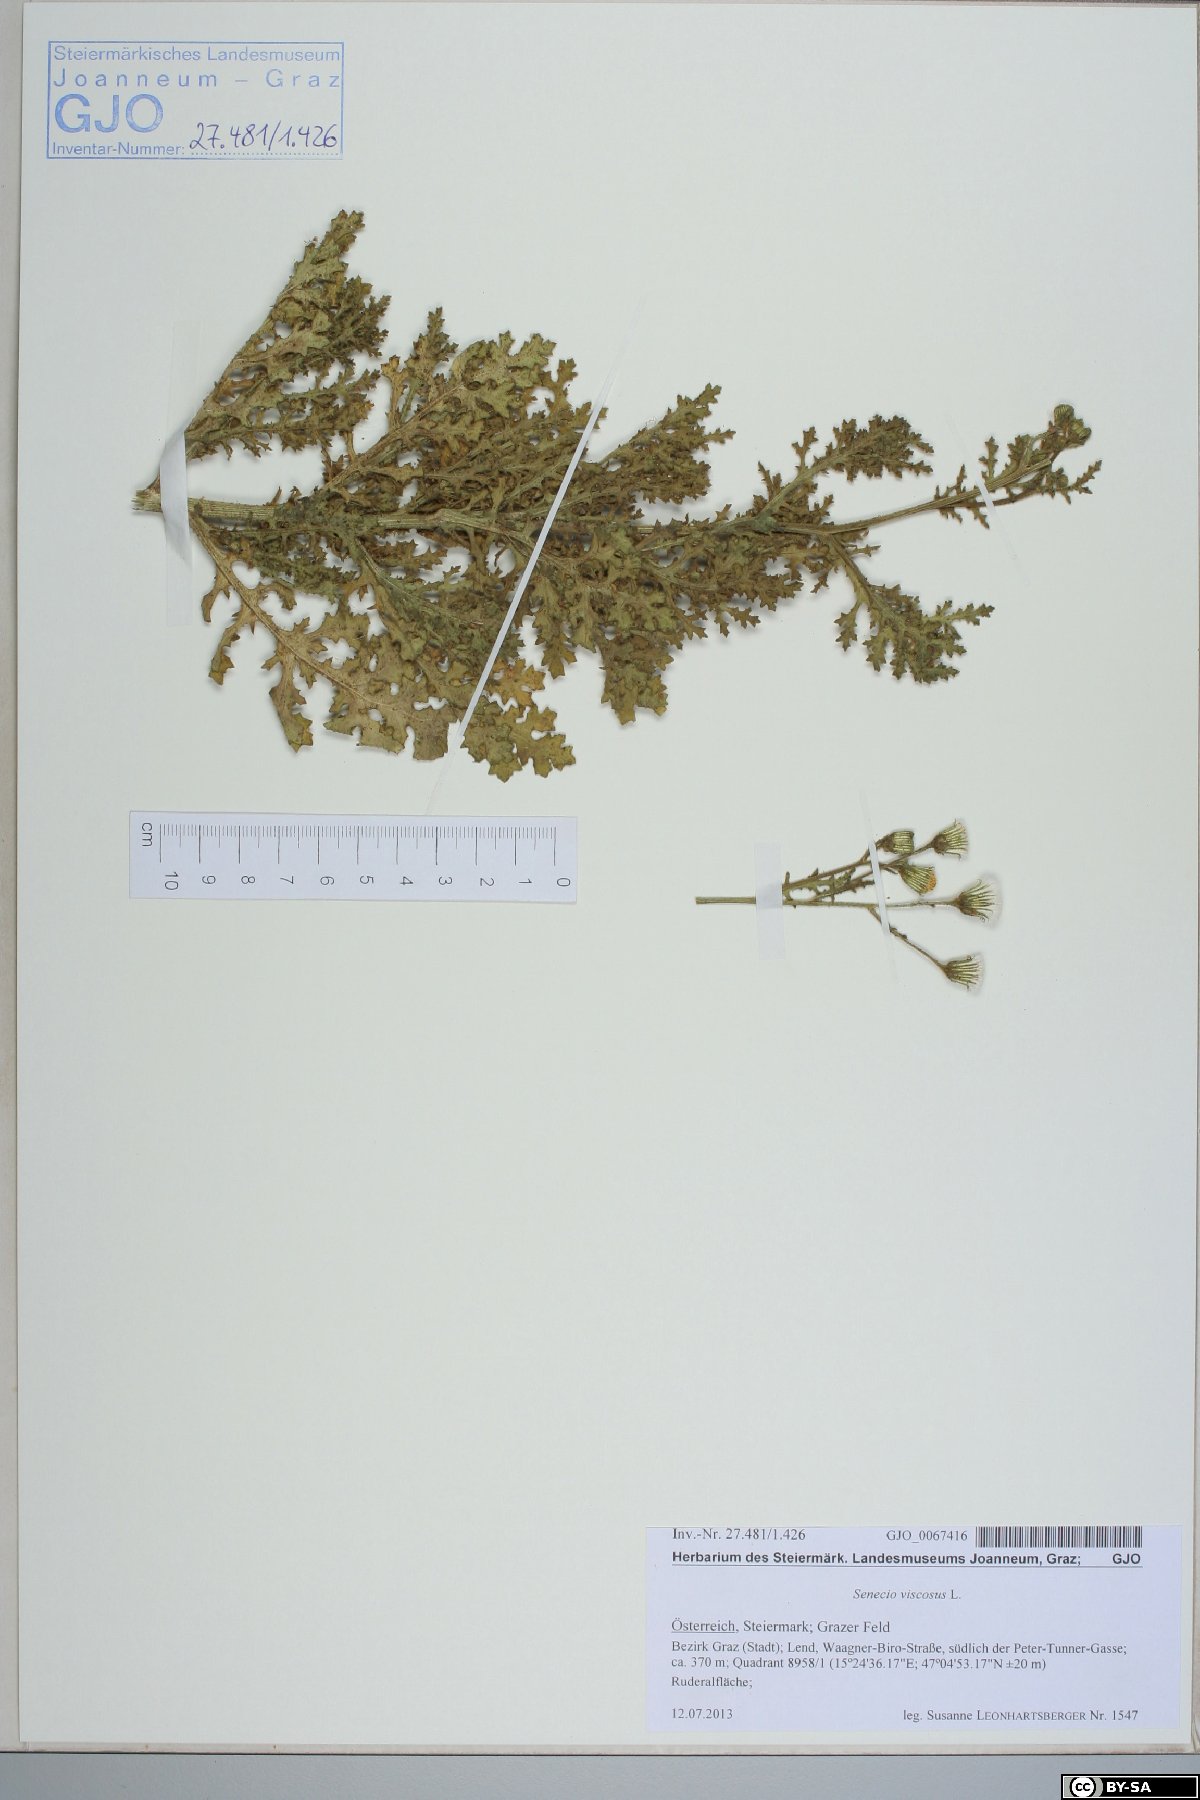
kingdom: Plantae
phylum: Tracheophyta
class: Magnoliopsida
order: Asterales
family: Asteraceae
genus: Senecio
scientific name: Senecio viscosus
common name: Sticky groundsel
